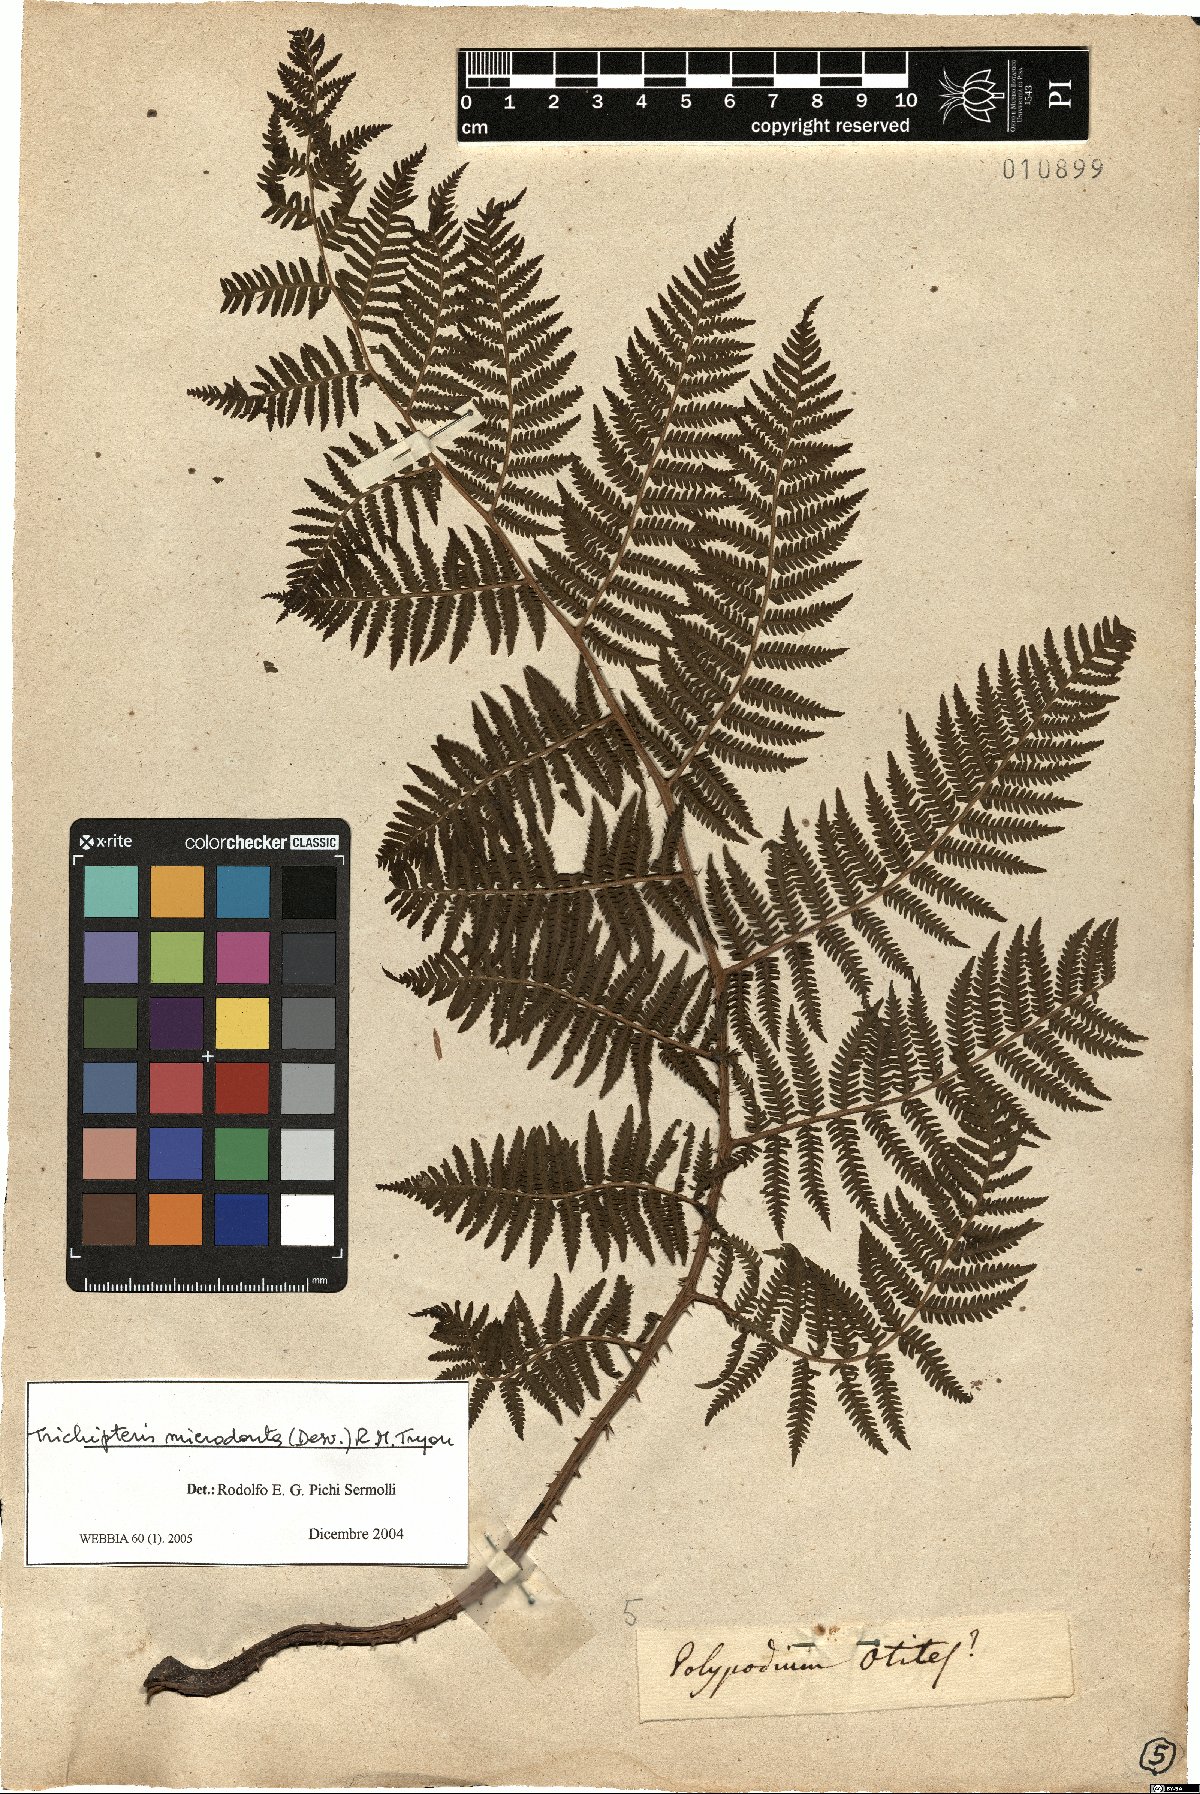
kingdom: Plantae
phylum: Tracheophyta
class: Polypodiopsida
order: Cyatheales
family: Cyatheaceae
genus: Cyathea
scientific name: Cyathea microdonta
